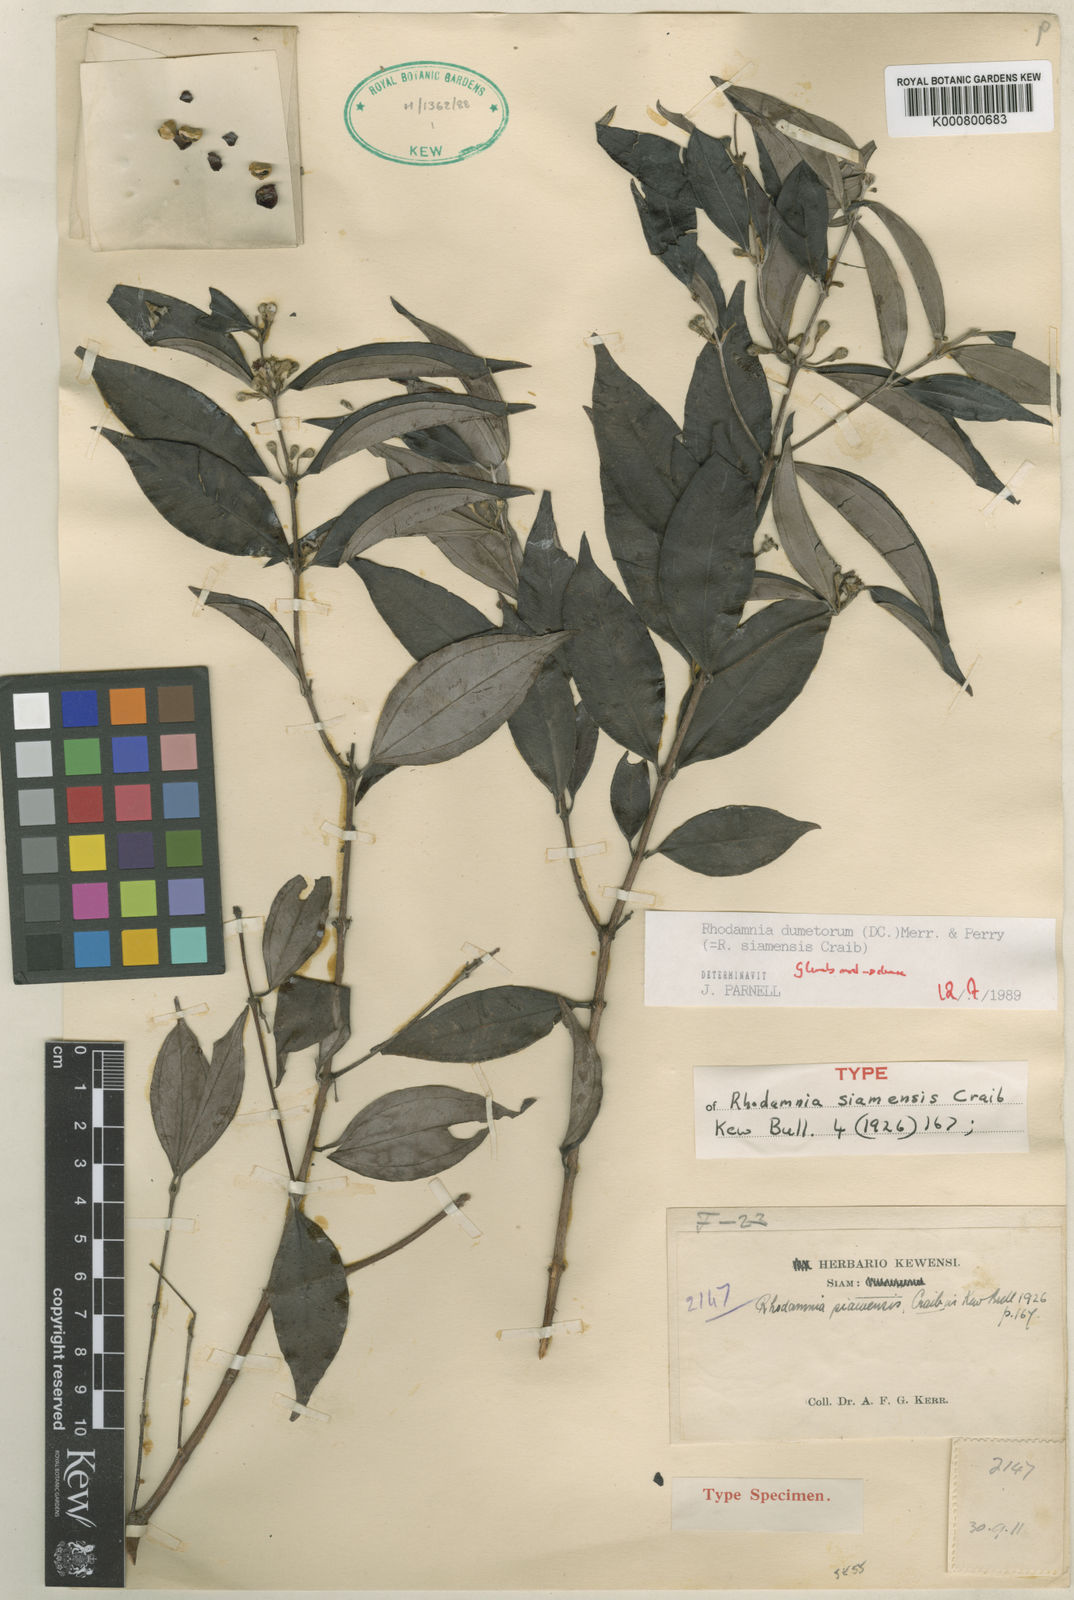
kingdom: Plantae
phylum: Tracheophyta
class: Magnoliopsida
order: Myrtales
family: Myrtaceae
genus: Rhodamnia
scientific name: Rhodamnia dumetorum
